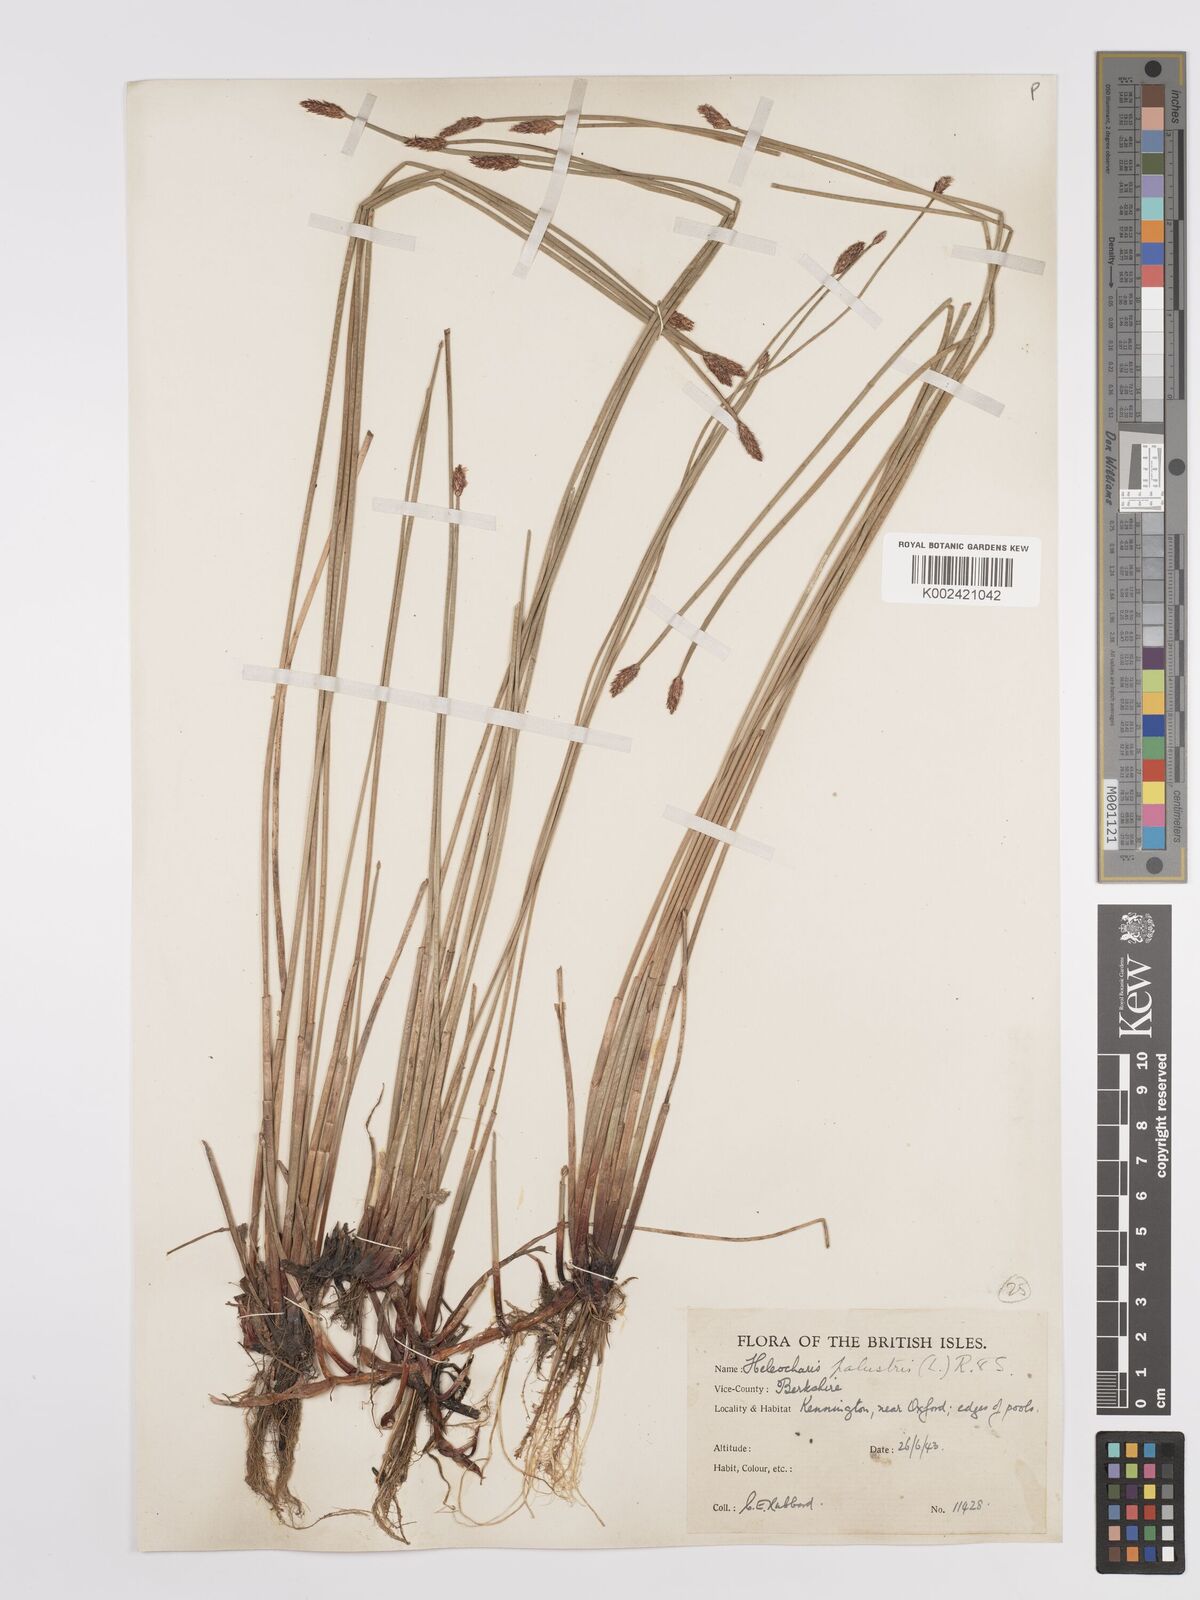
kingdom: Plantae
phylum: Tracheophyta
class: Liliopsida
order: Poales
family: Cyperaceae
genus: Eleocharis
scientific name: Eleocharis palustris
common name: Common spike-rush
